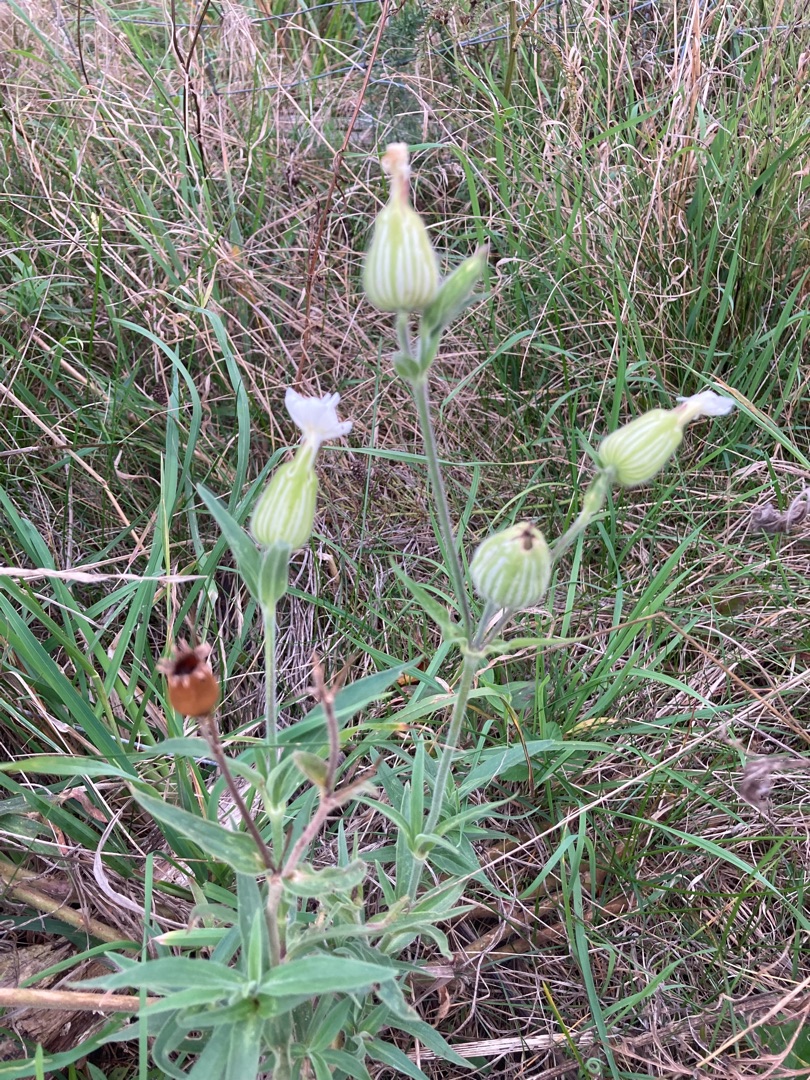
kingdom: Plantae
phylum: Tracheophyta
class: Magnoliopsida
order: Caryophyllales
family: Caryophyllaceae
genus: Silene
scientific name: Silene latifolia
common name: Aftenpragtstjerne
